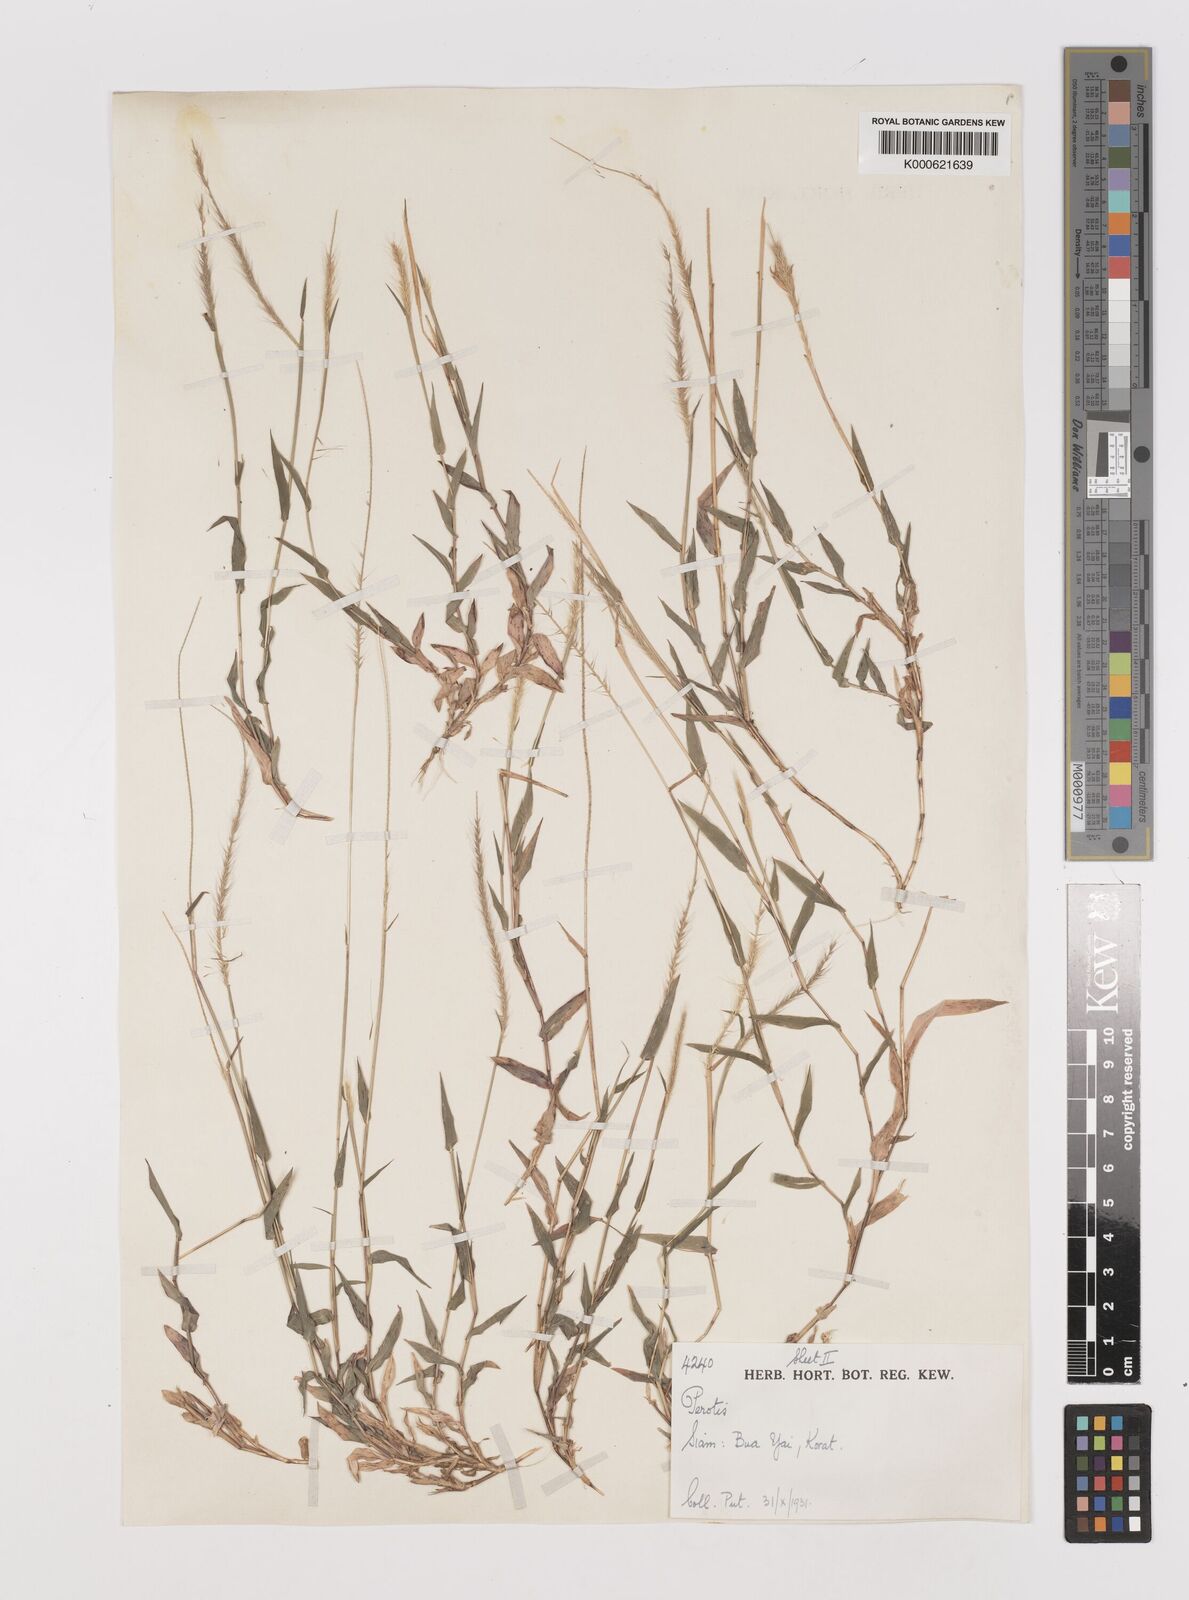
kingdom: Plantae
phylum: Tracheophyta
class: Liliopsida
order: Poales
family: Poaceae
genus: Perotis
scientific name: Perotis hordeiformis
